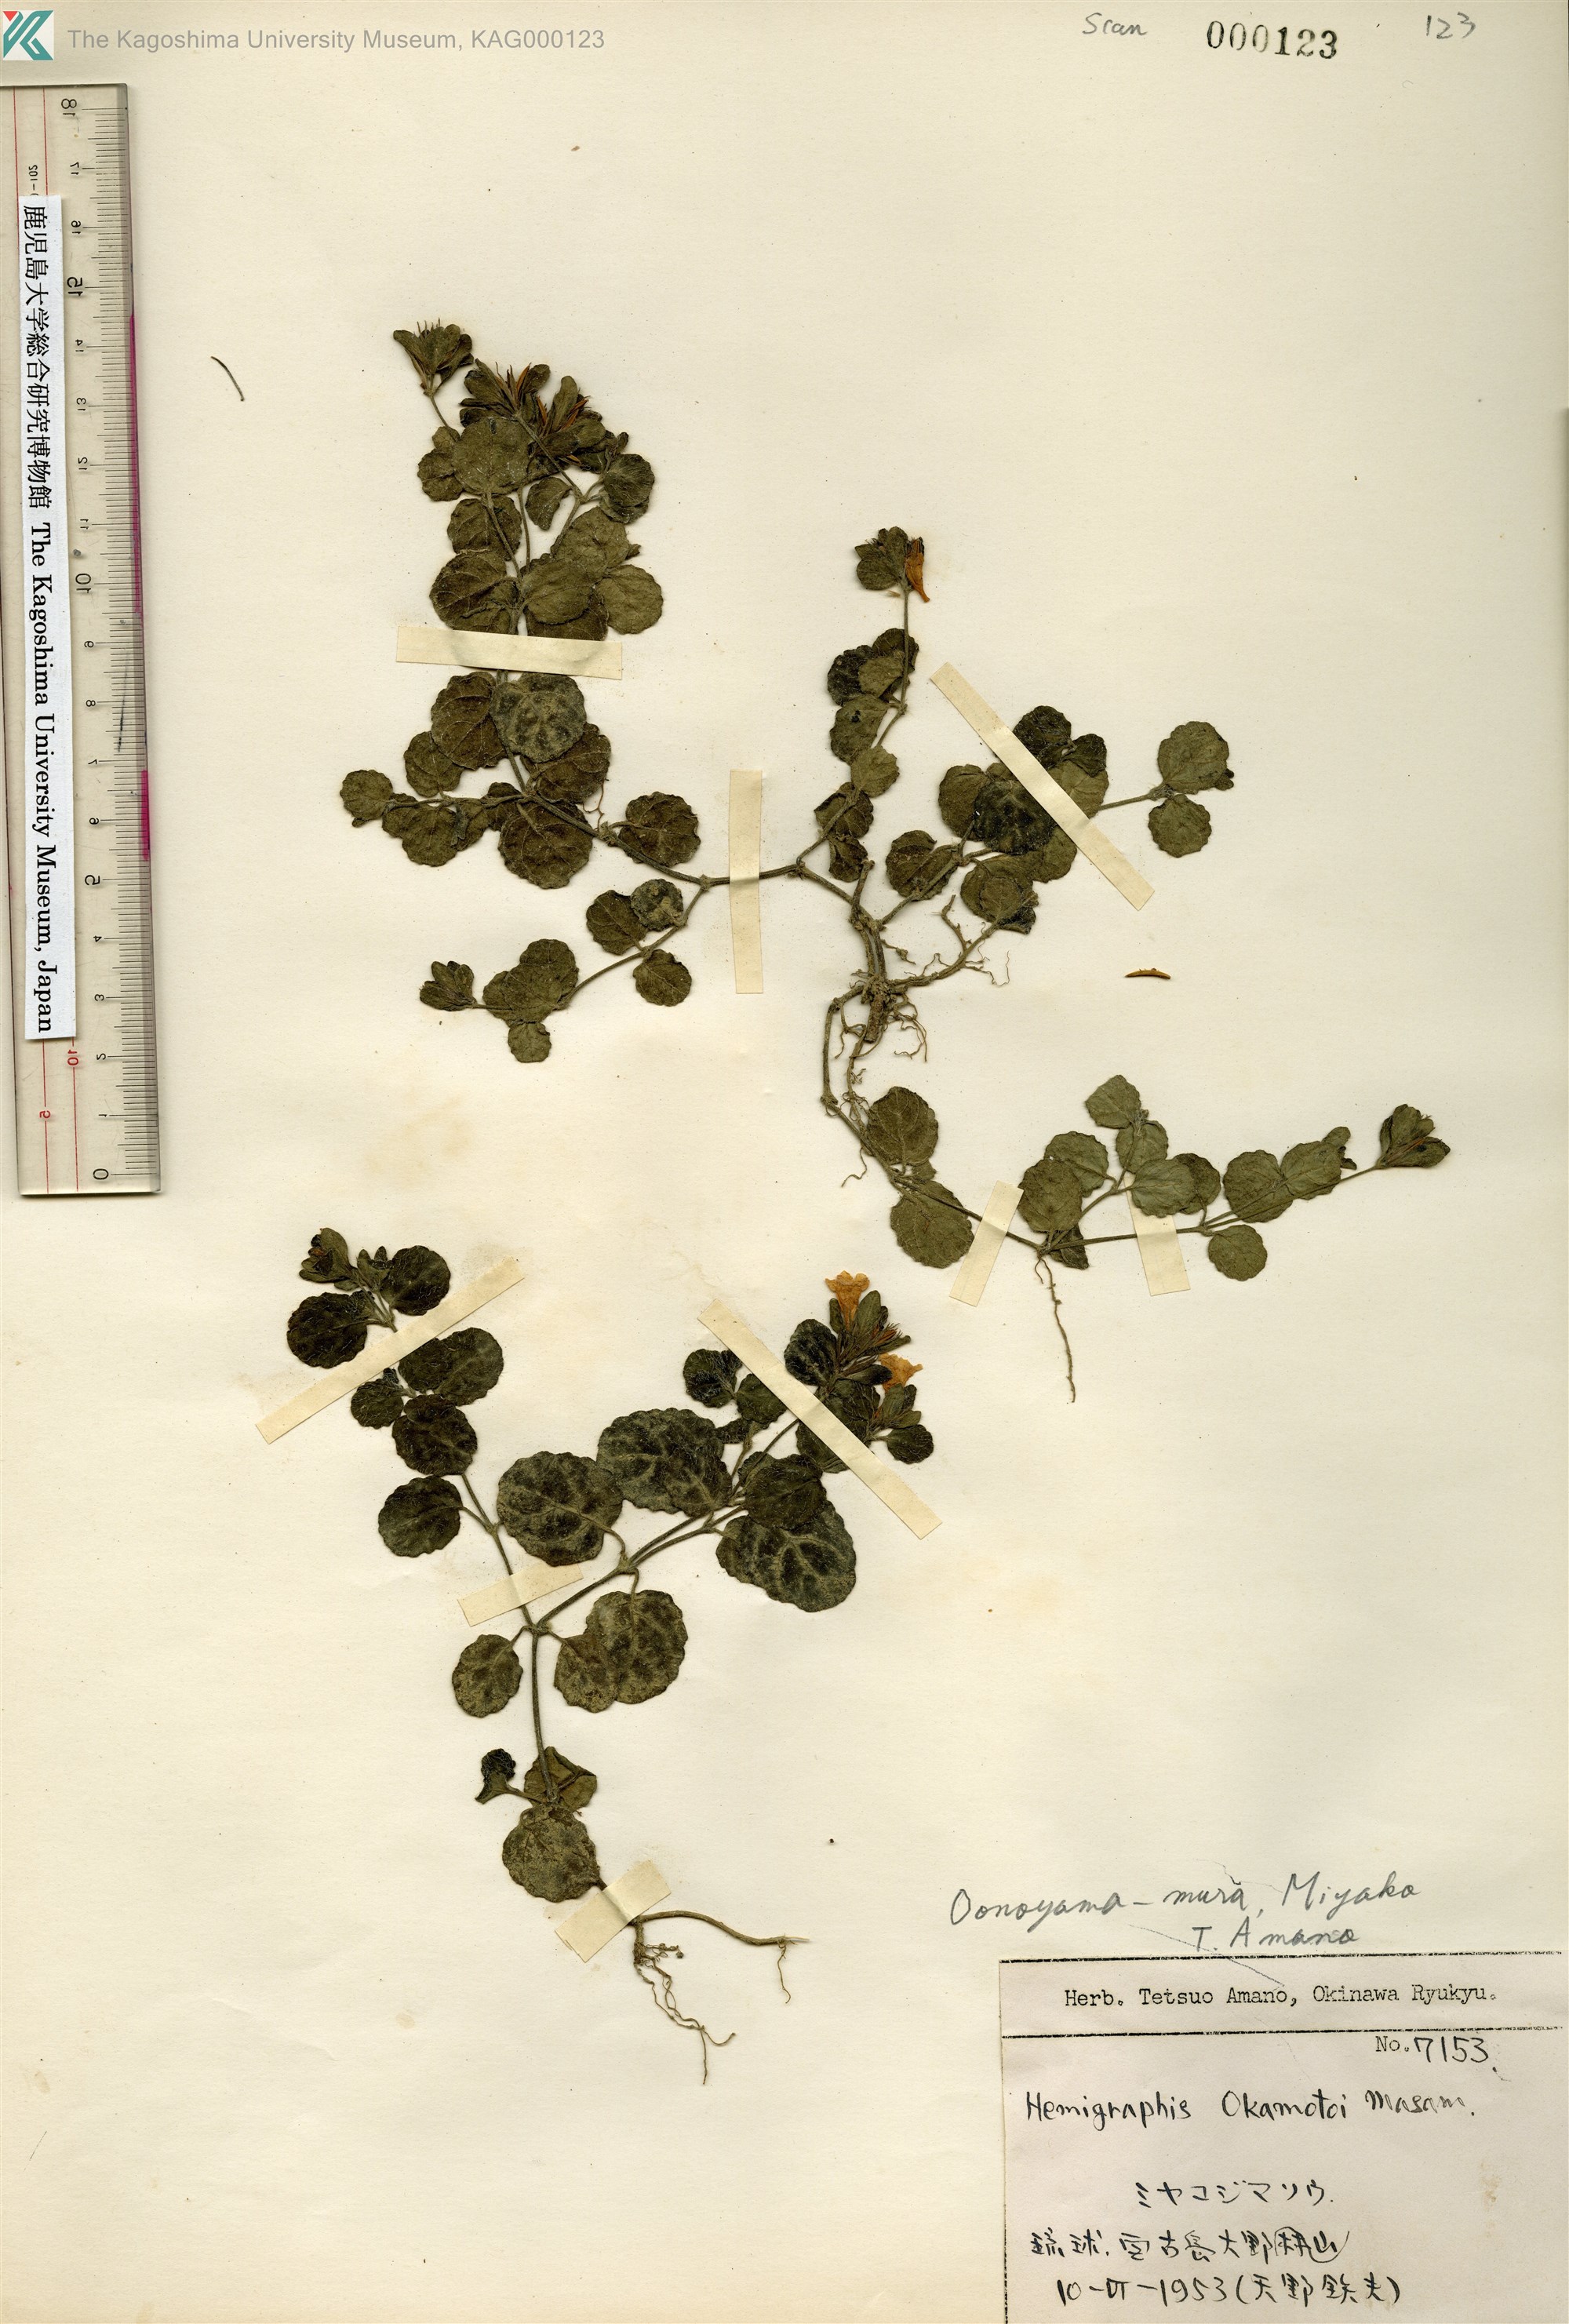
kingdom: Plantae
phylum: Tracheophyta
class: Magnoliopsida
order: Lamiales
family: Acanthaceae
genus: Hemigraphis
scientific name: Hemigraphis reptans
